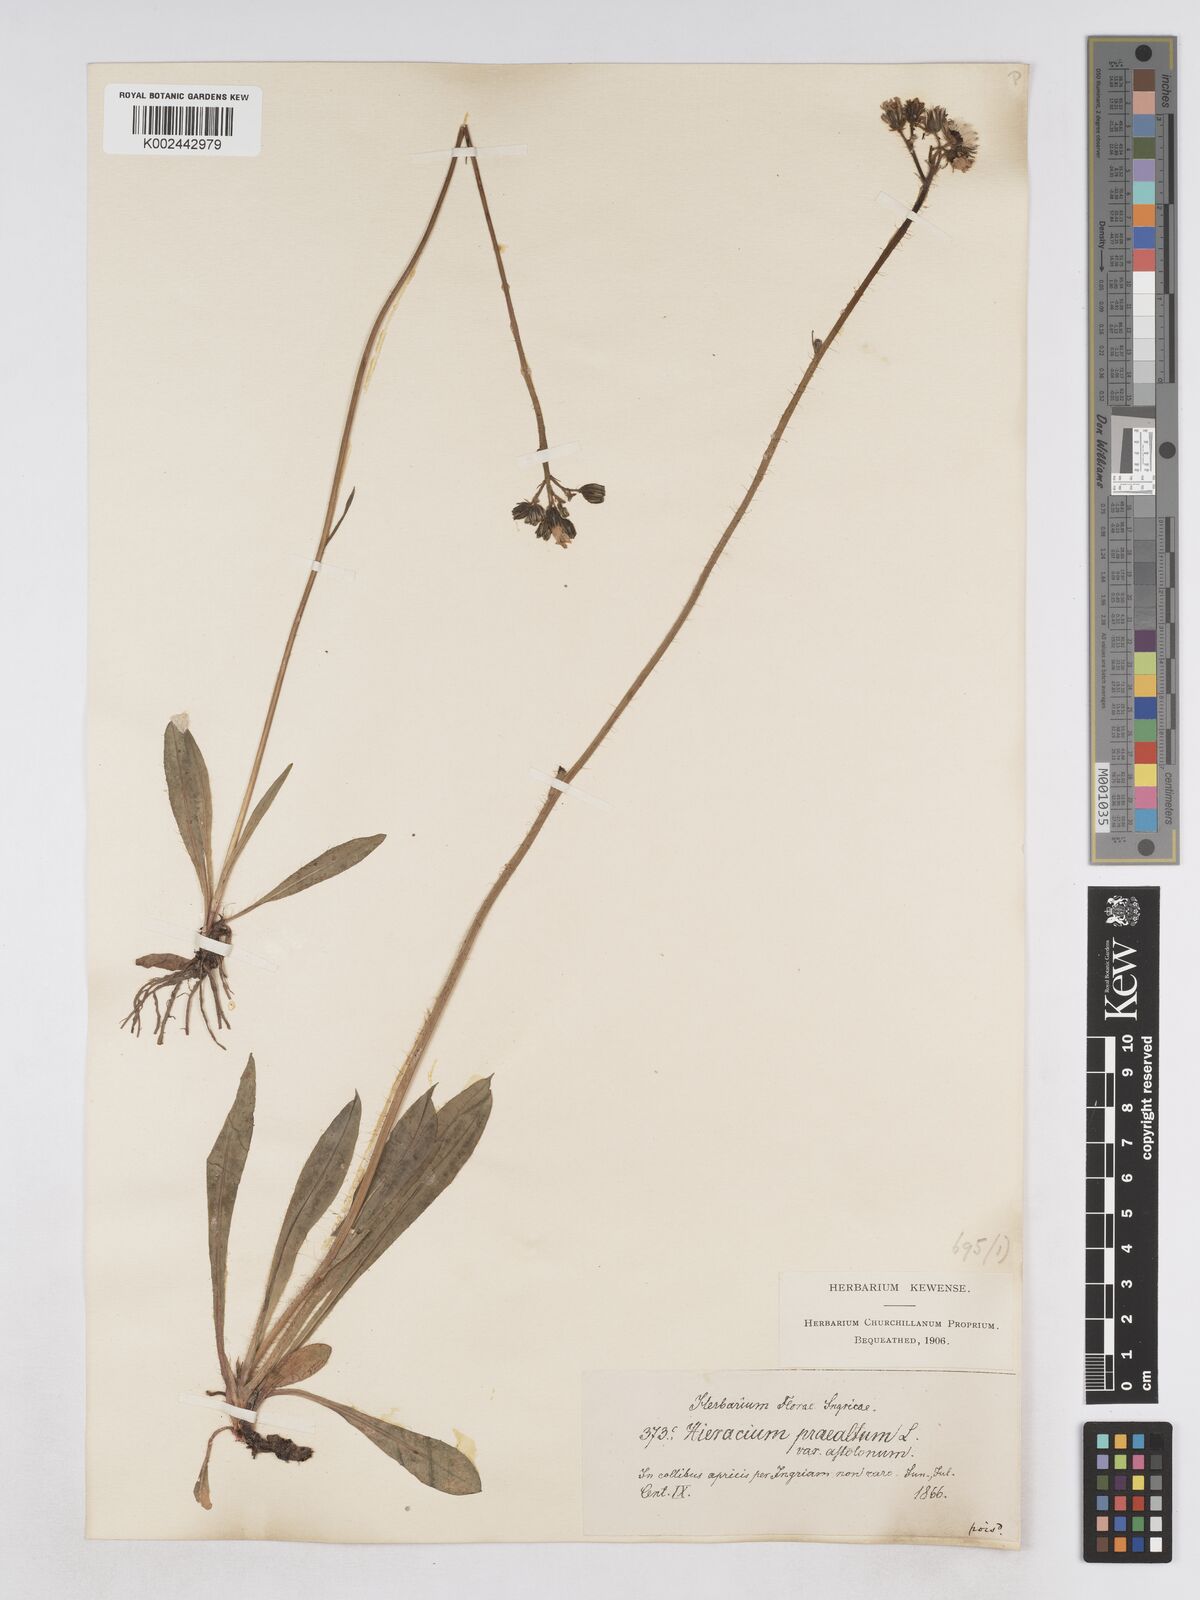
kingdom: Plantae
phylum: Tracheophyta
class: Magnoliopsida
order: Asterales
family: Asteraceae
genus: Pilosella
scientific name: Pilosella piloselloides
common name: Glaucous king-devil
